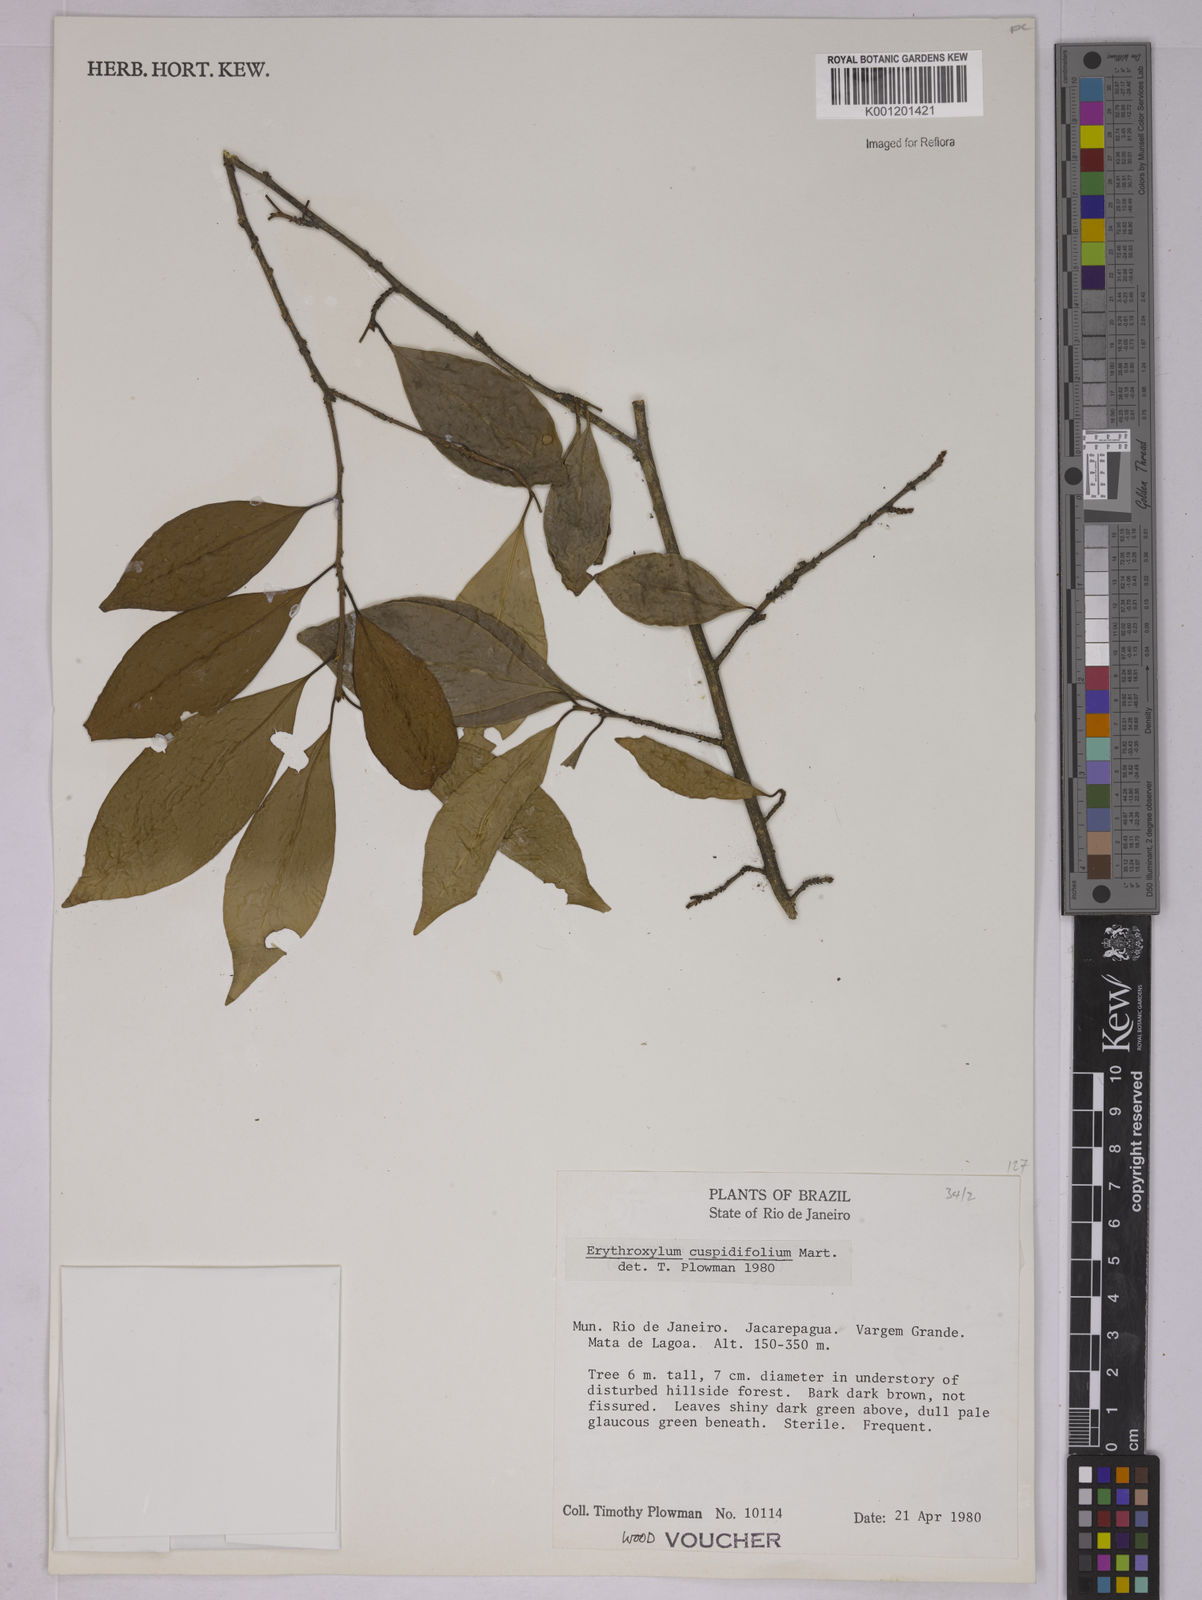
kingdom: Plantae
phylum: Tracheophyta
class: Magnoliopsida
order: Malpighiales
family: Erythroxylaceae
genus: Erythroxylum
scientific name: Erythroxylum cuspidifolium
